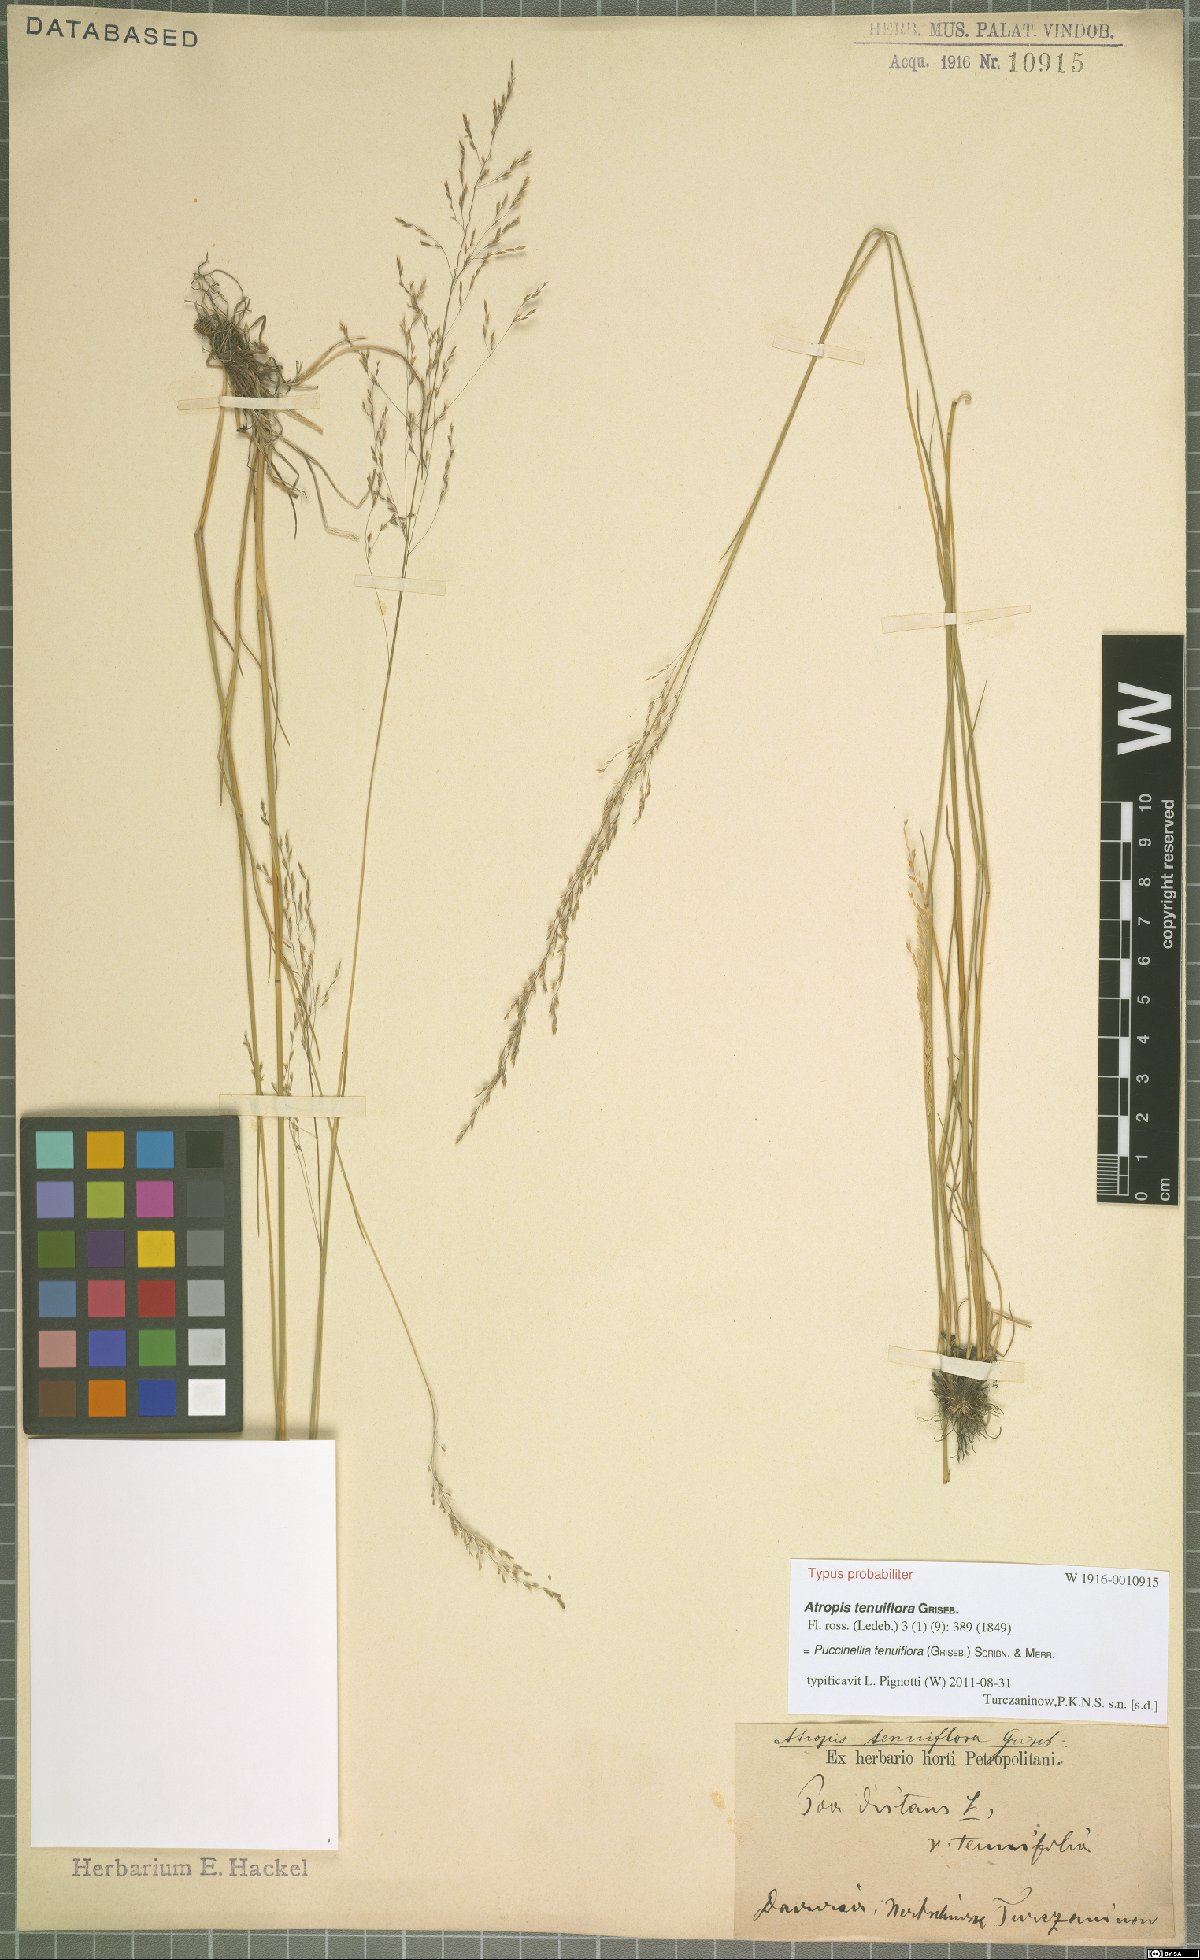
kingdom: Plantae
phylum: Tracheophyta
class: Liliopsida
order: Poales
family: Poaceae
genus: Puccinellia
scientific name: Puccinellia tenuiflora
